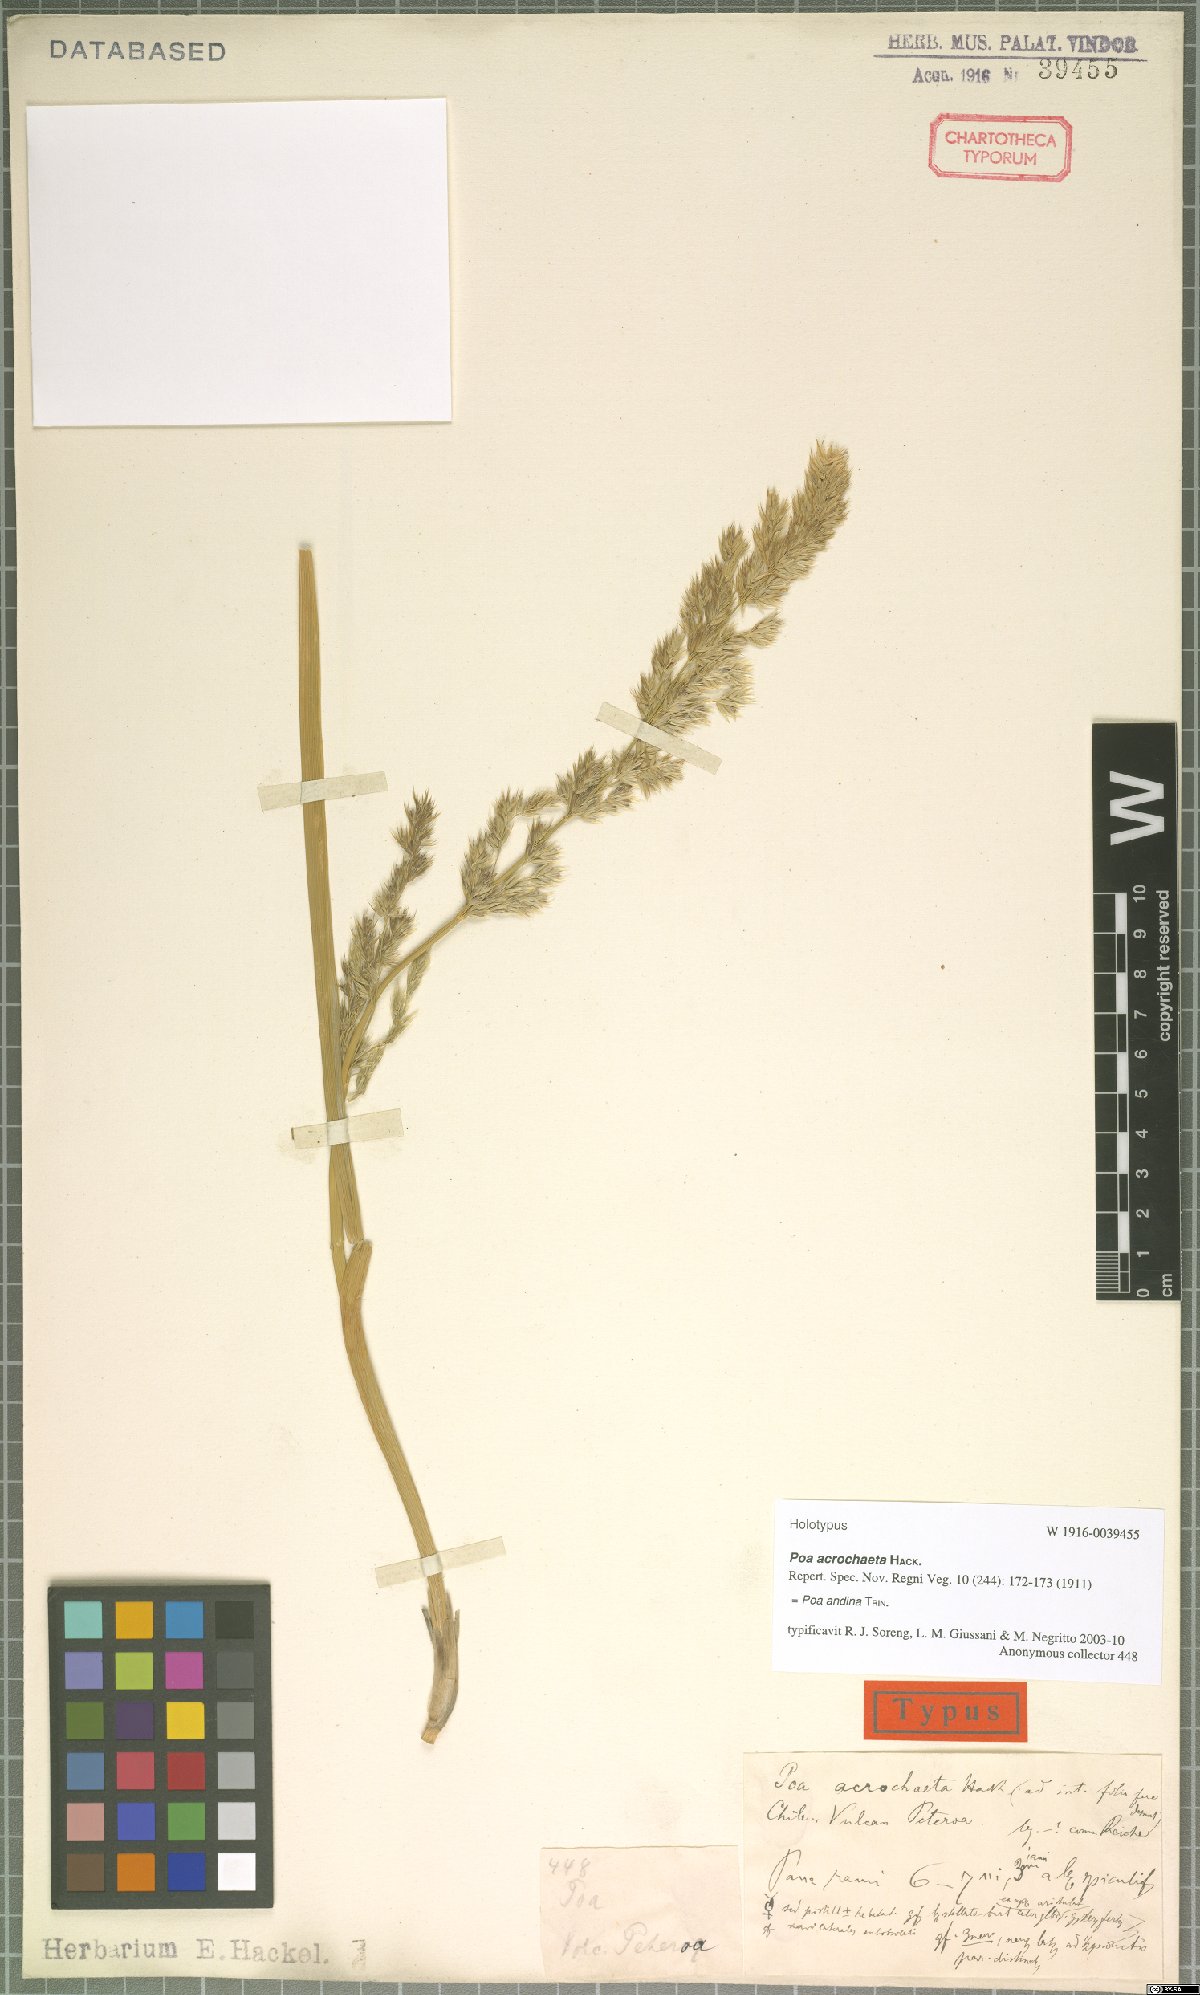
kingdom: Plantae
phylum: Tracheophyta
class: Liliopsida
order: Poales
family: Poaceae
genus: Nicoraepoa
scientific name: Nicoraepoa andina
